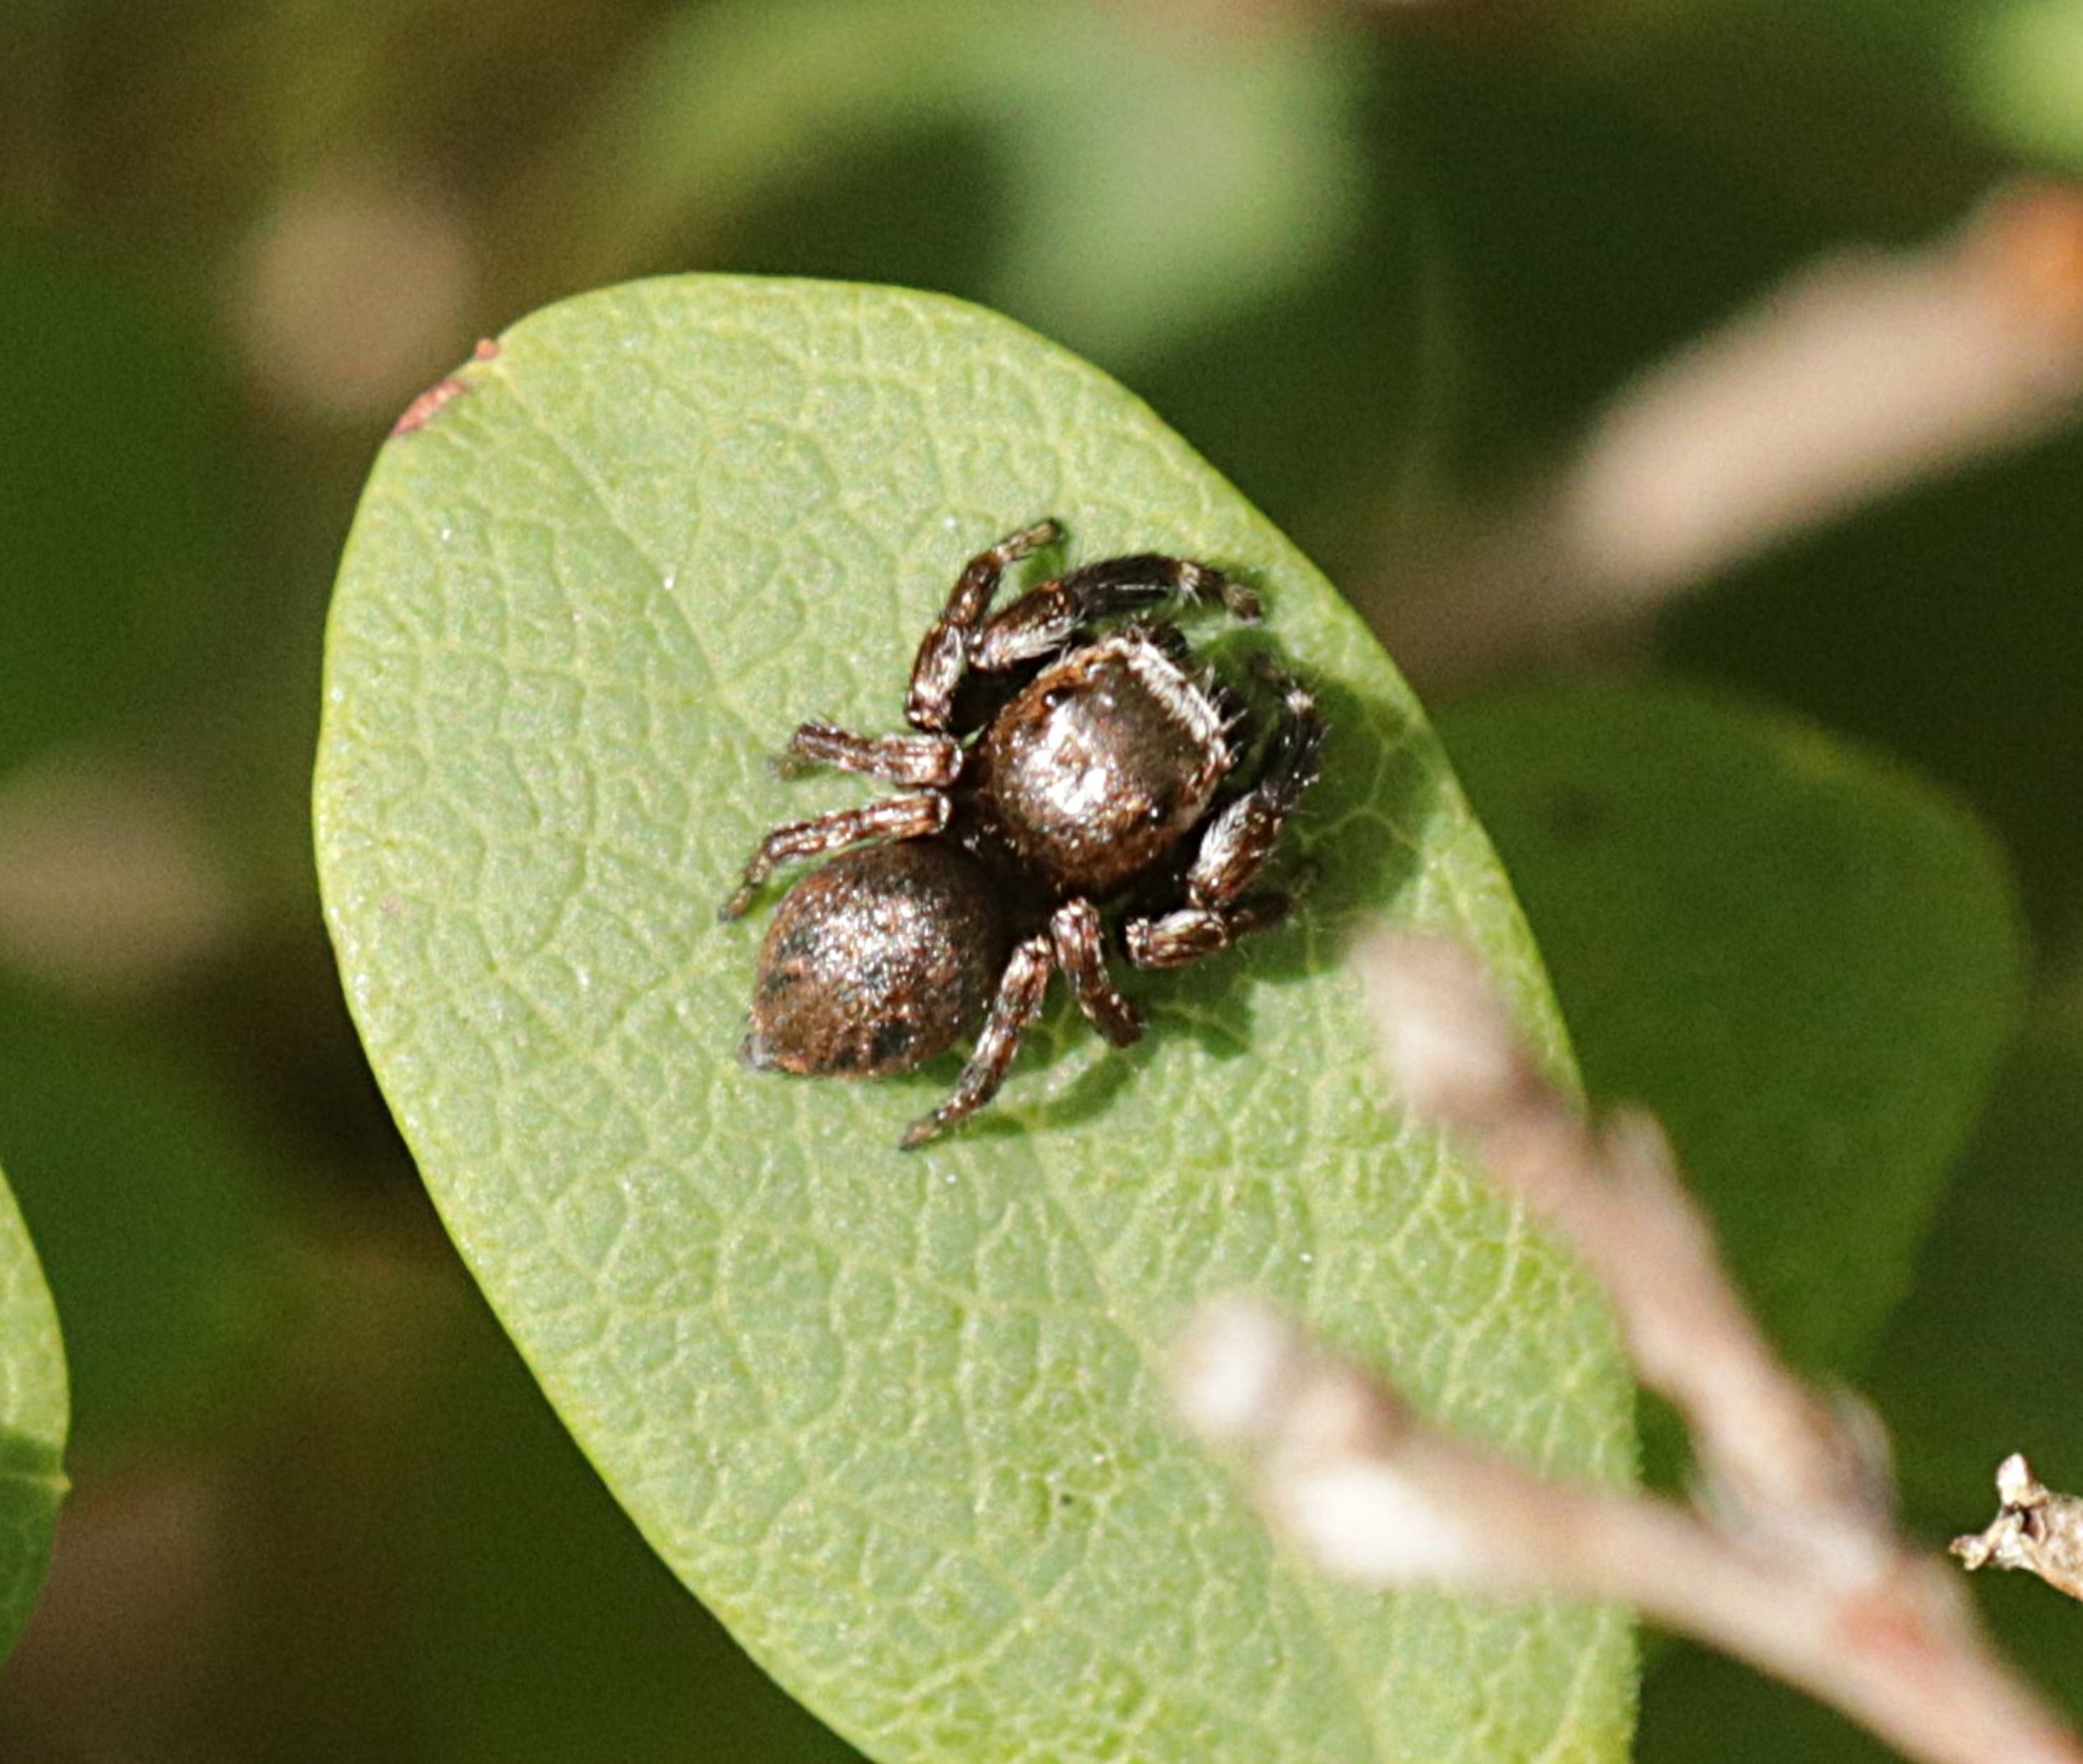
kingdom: Animalia
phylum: Arthropoda
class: Arachnida
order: Araneae
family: Salticidae
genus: Evarcha
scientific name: Evarcha arcuata
